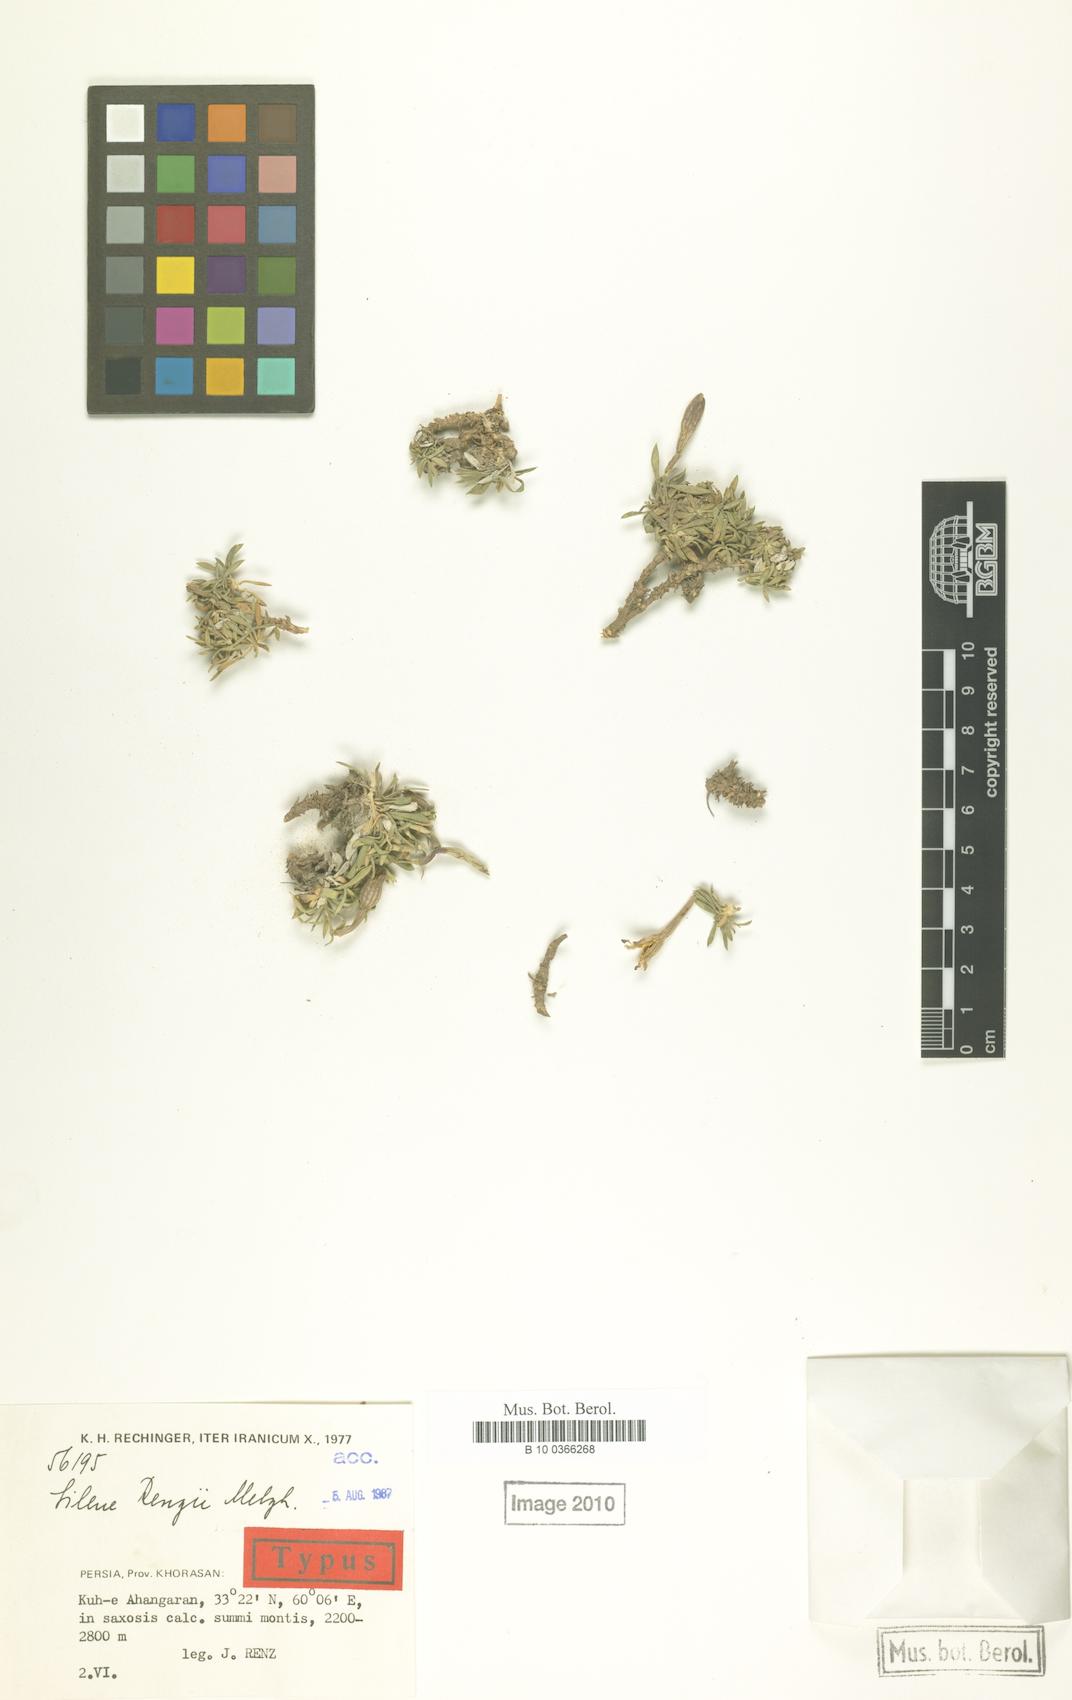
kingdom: Plantae
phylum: Tracheophyta
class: Magnoliopsida
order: Caryophyllales
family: Caryophyllaceae
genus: Silene
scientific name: Silene renzii
